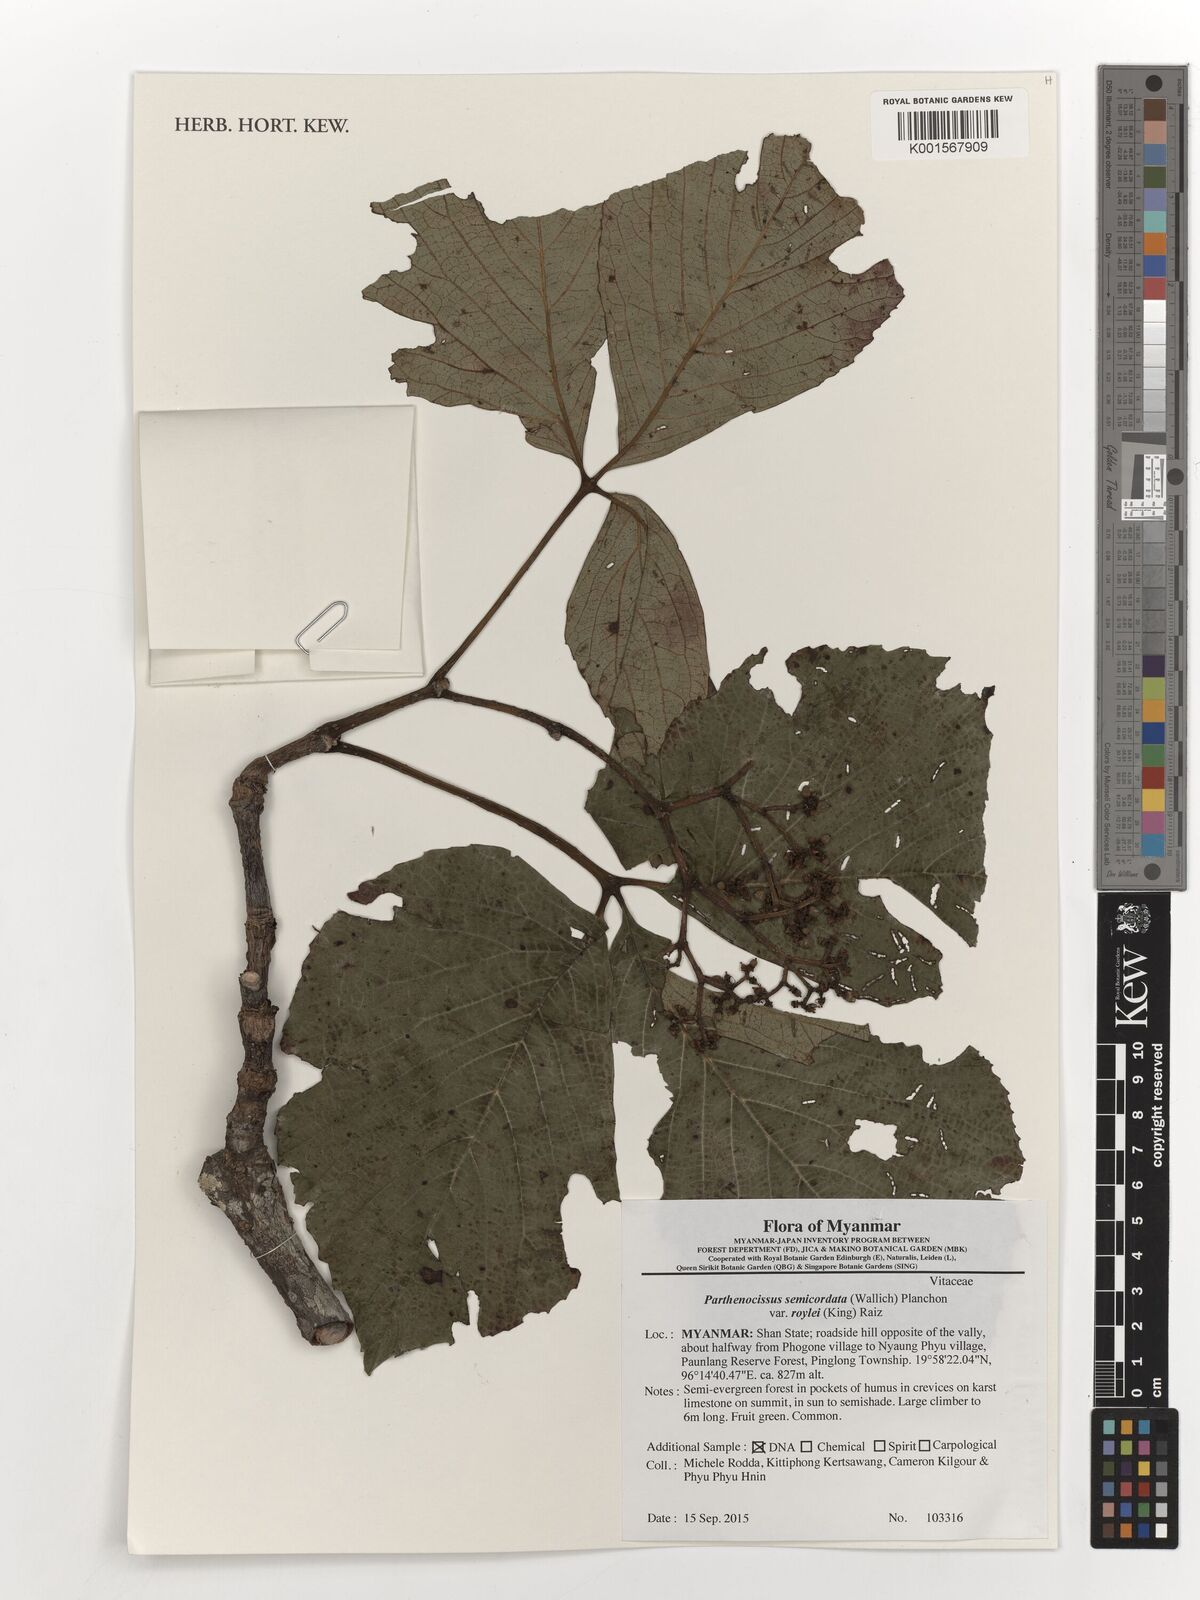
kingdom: Plantae
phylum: Tracheophyta
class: Magnoliopsida
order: Vitales
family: Vitaceae
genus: Parthenocissus
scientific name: Parthenocissus semicordata
